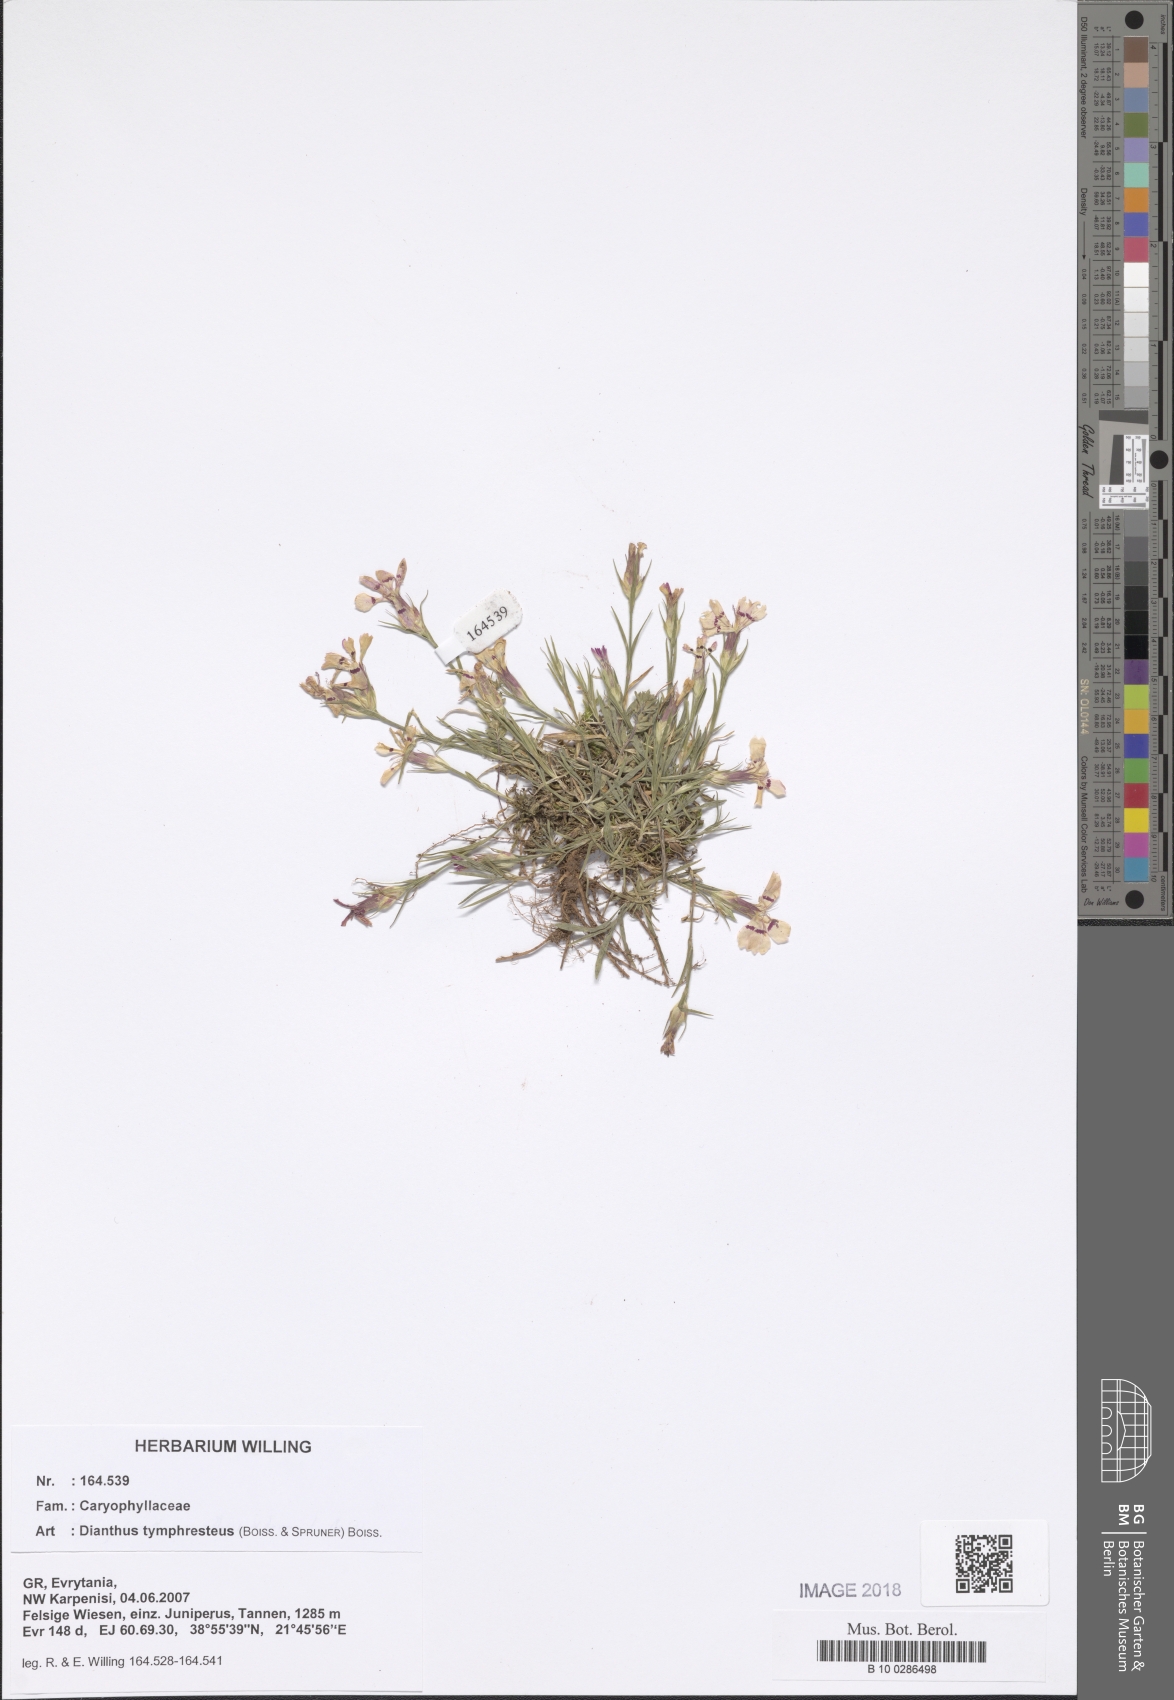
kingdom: Plantae
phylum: Tracheophyta
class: Magnoliopsida
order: Caryophyllales
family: Caryophyllaceae
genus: Dianthus
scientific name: Dianthus tymphresteus
